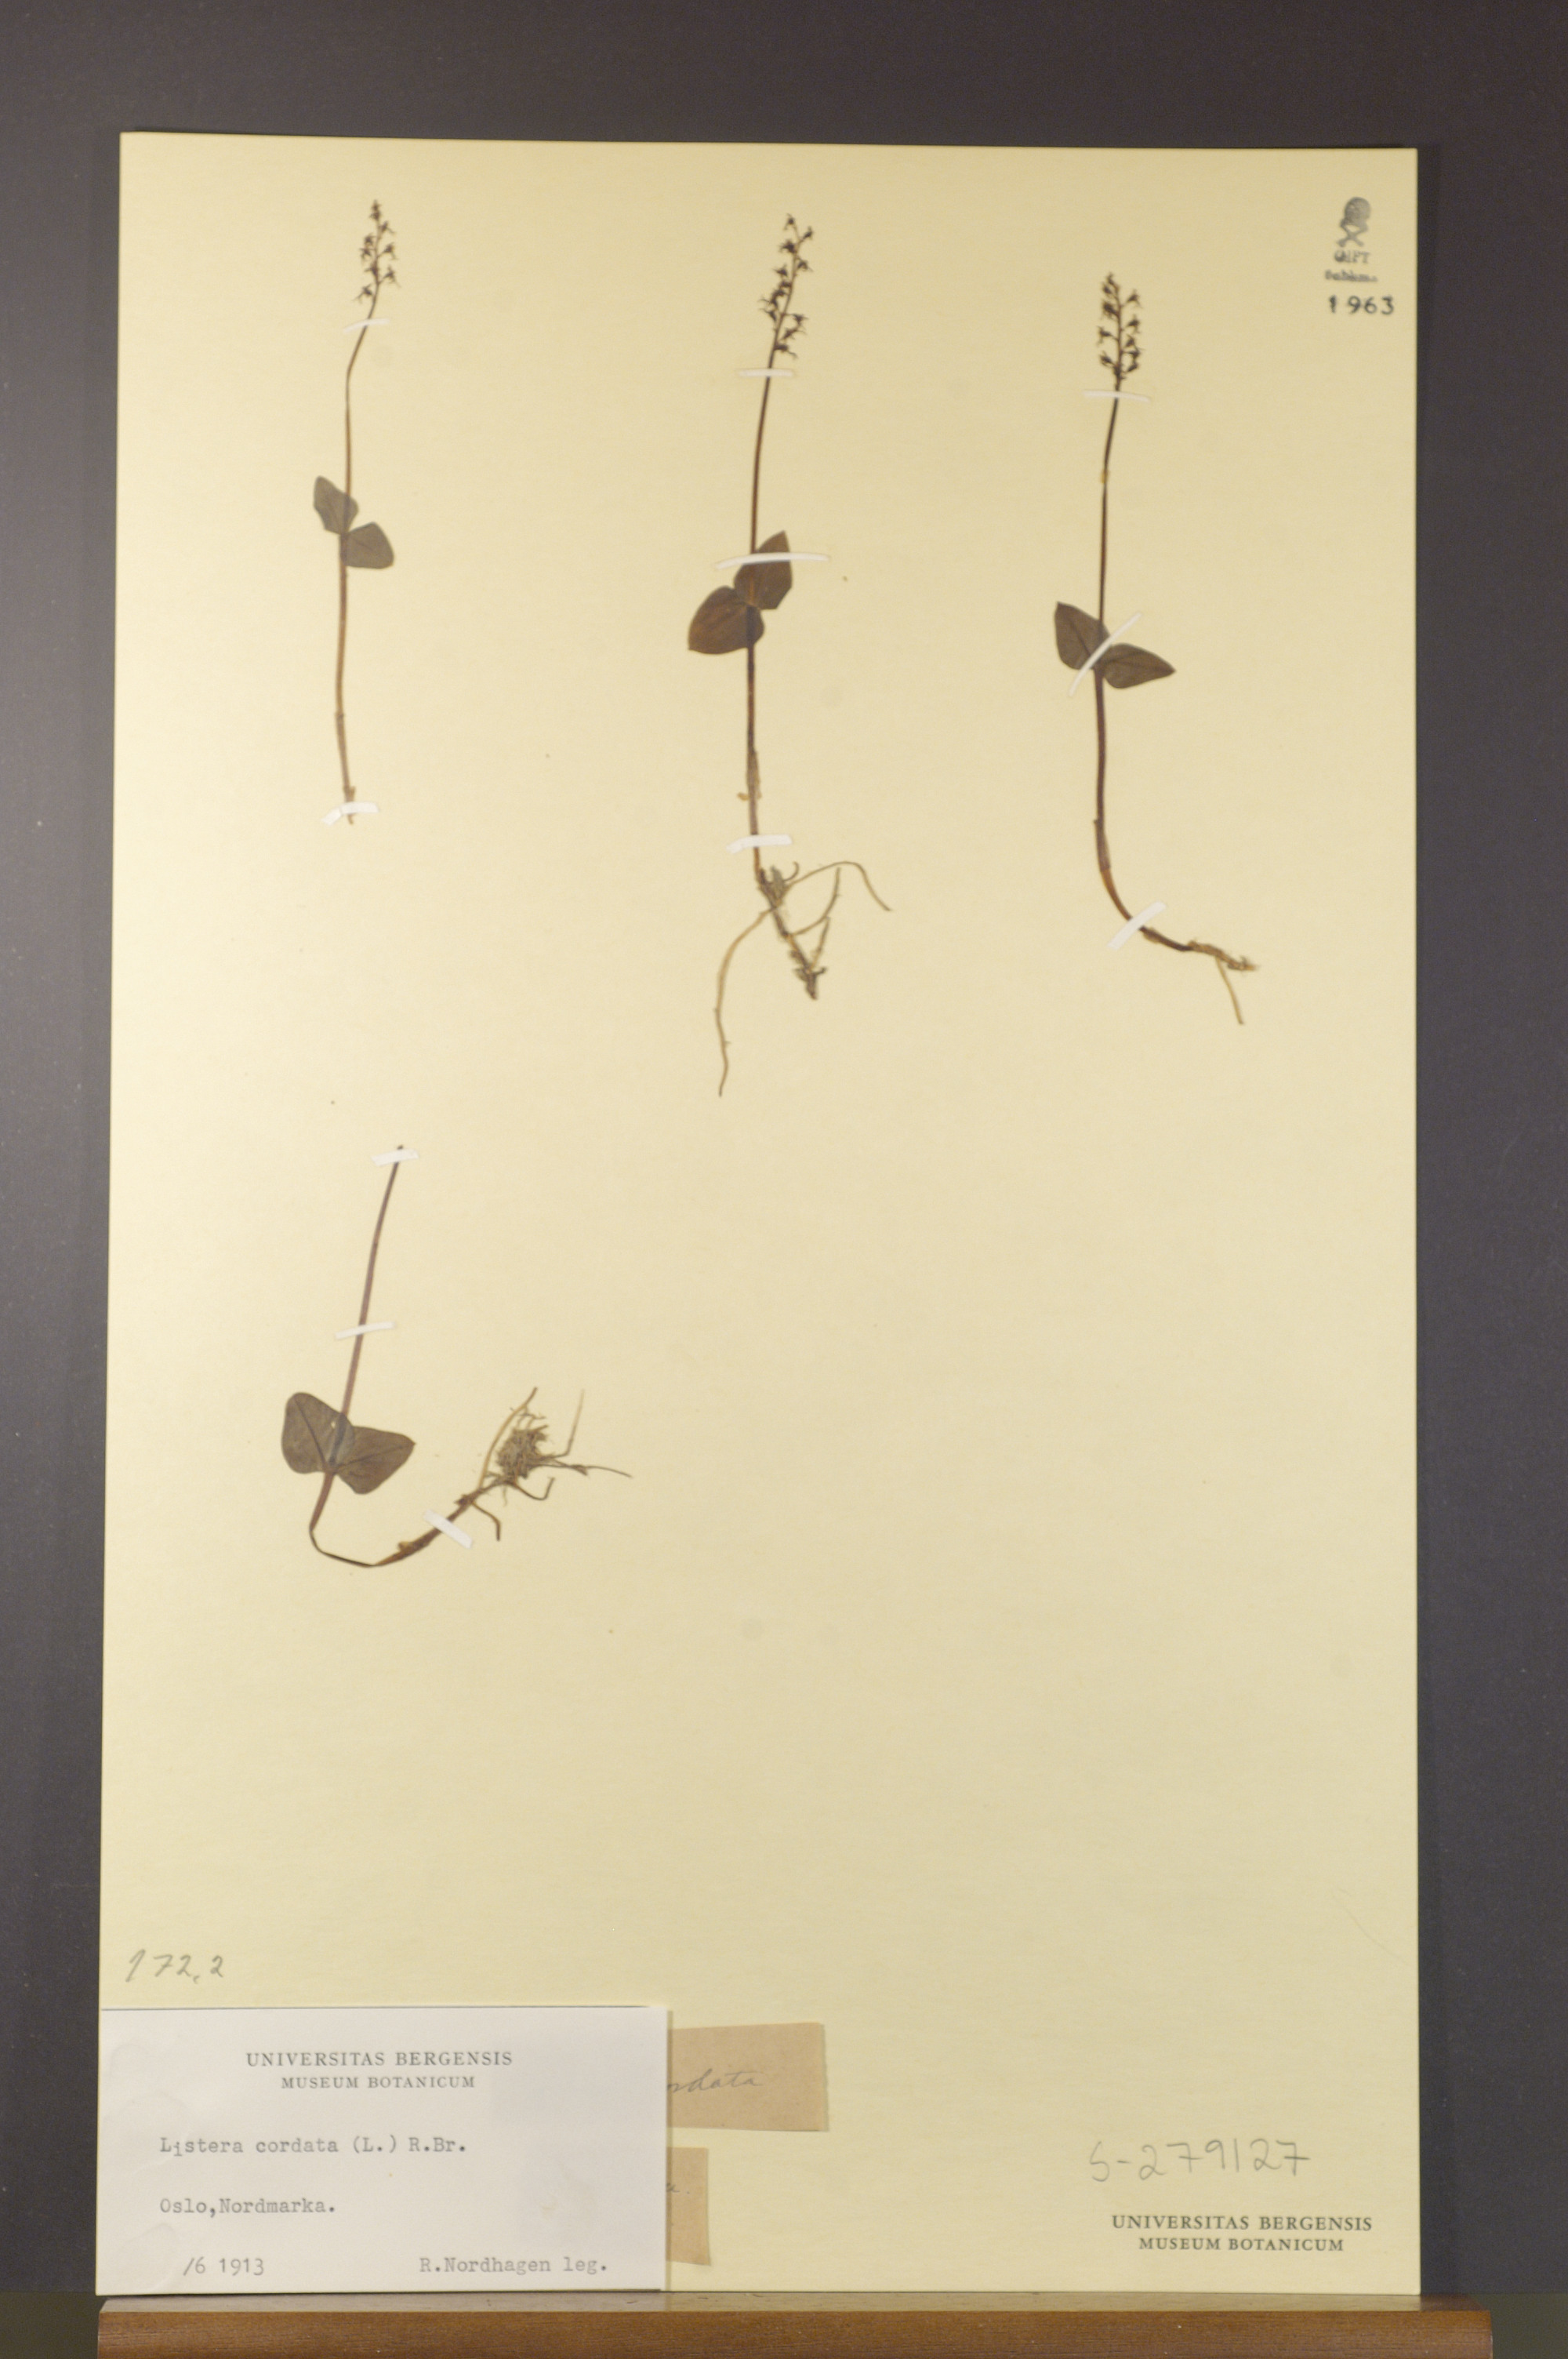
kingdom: Plantae
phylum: Tracheophyta
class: Liliopsida
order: Asparagales
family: Orchidaceae
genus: Neottia
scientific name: Neottia cordata
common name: Lesser twayblade
